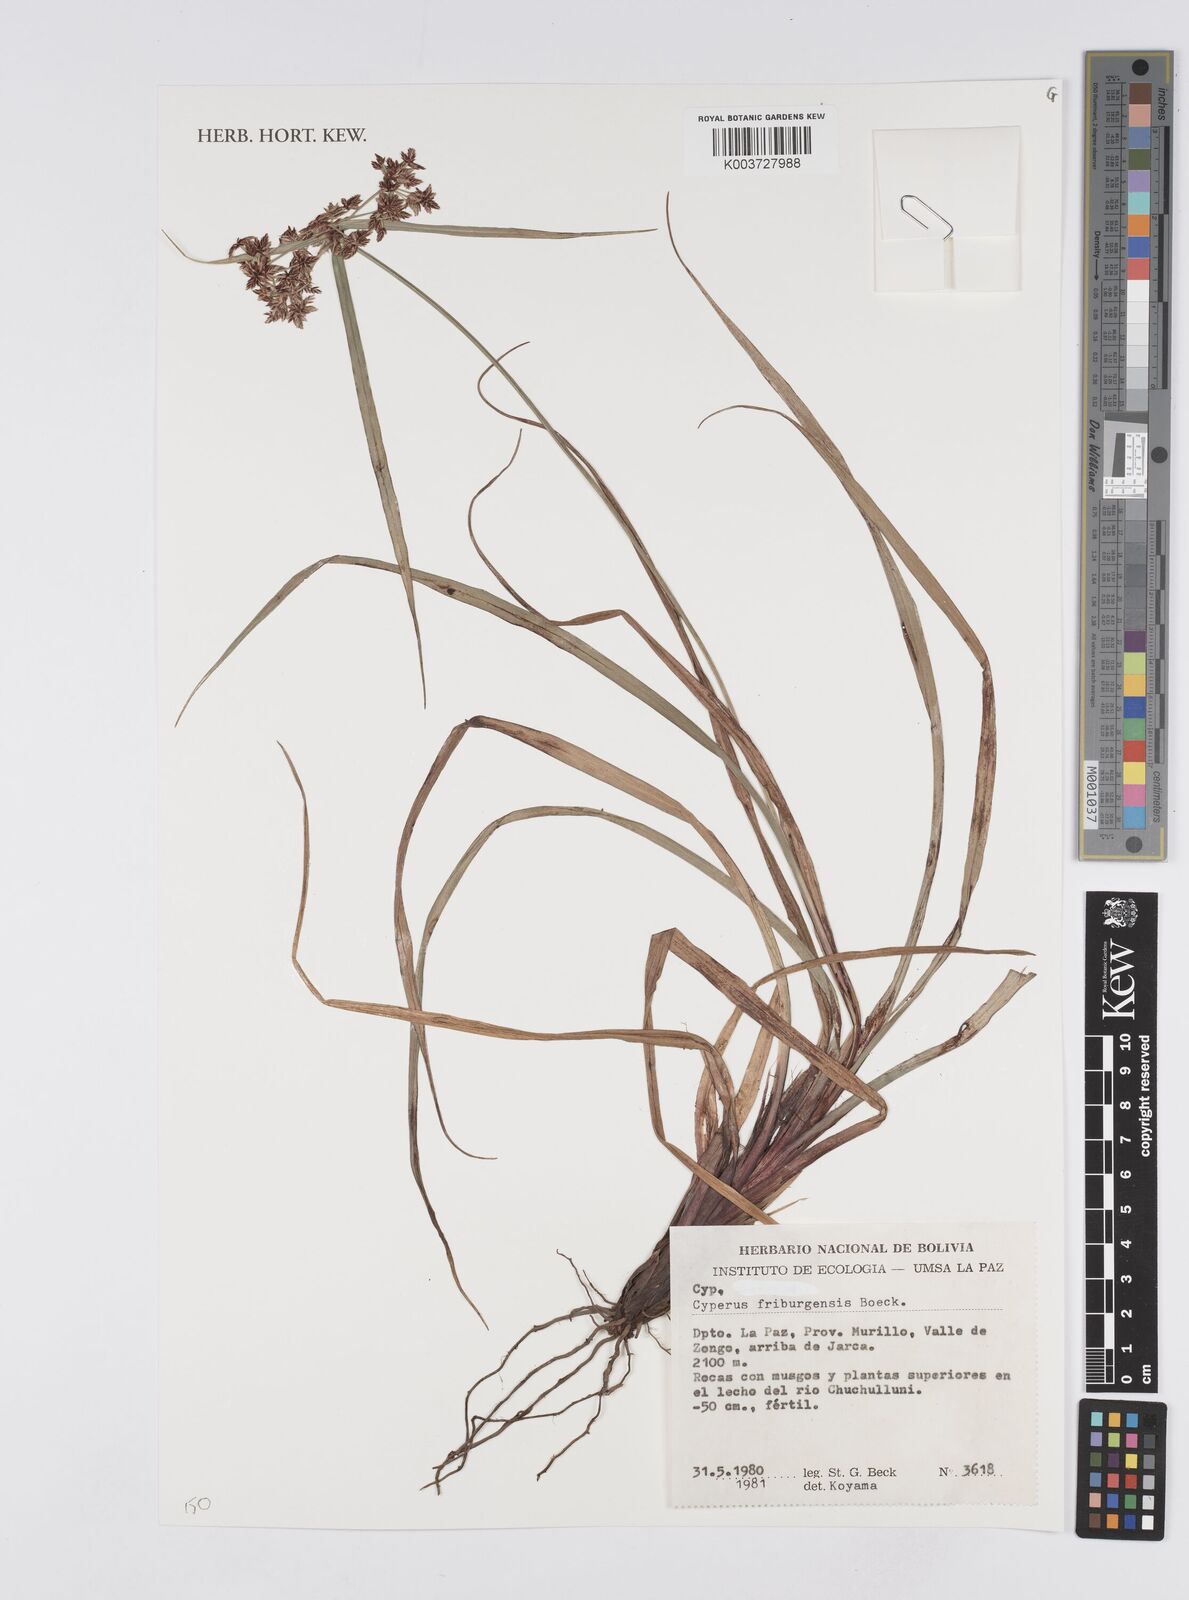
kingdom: Plantae
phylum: Tracheophyta
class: Liliopsida
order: Poales
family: Cyperaceae
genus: Cyperus
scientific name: Cyperus friburgensis
